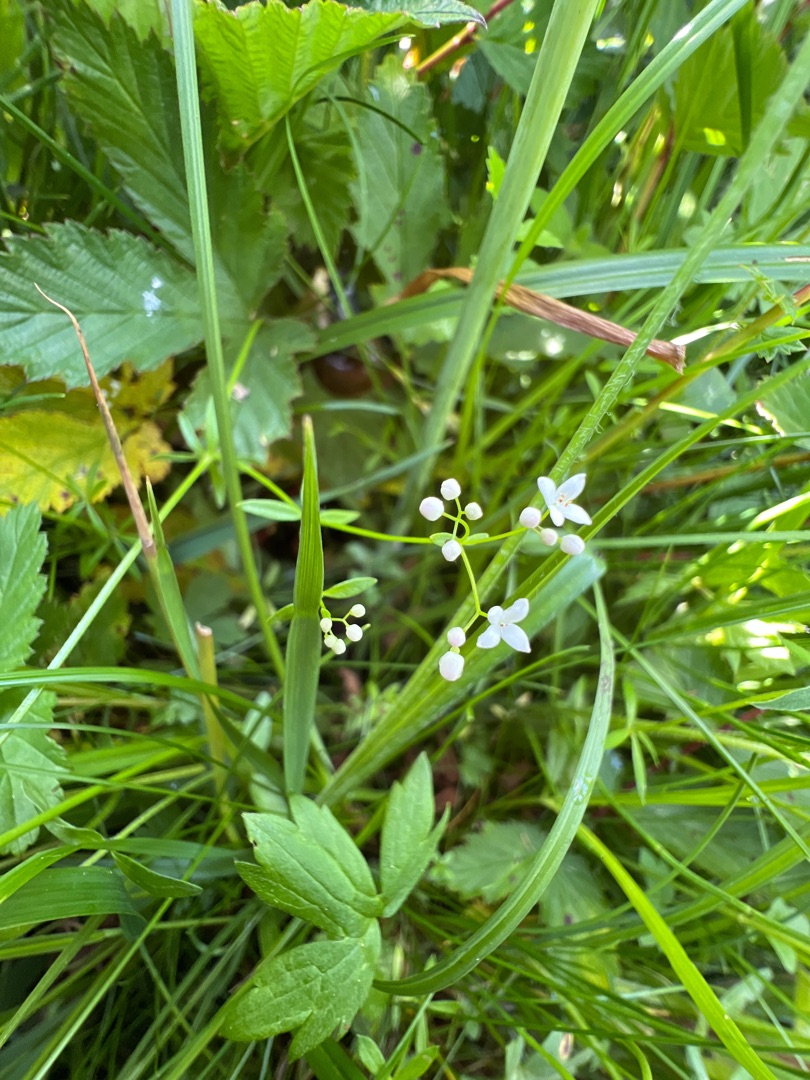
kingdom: Plantae
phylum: Tracheophyta
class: Magnoliopsida
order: Gentianales
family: Rubiaceae
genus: Galium
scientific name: Galium palustre
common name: Kær-snerre
